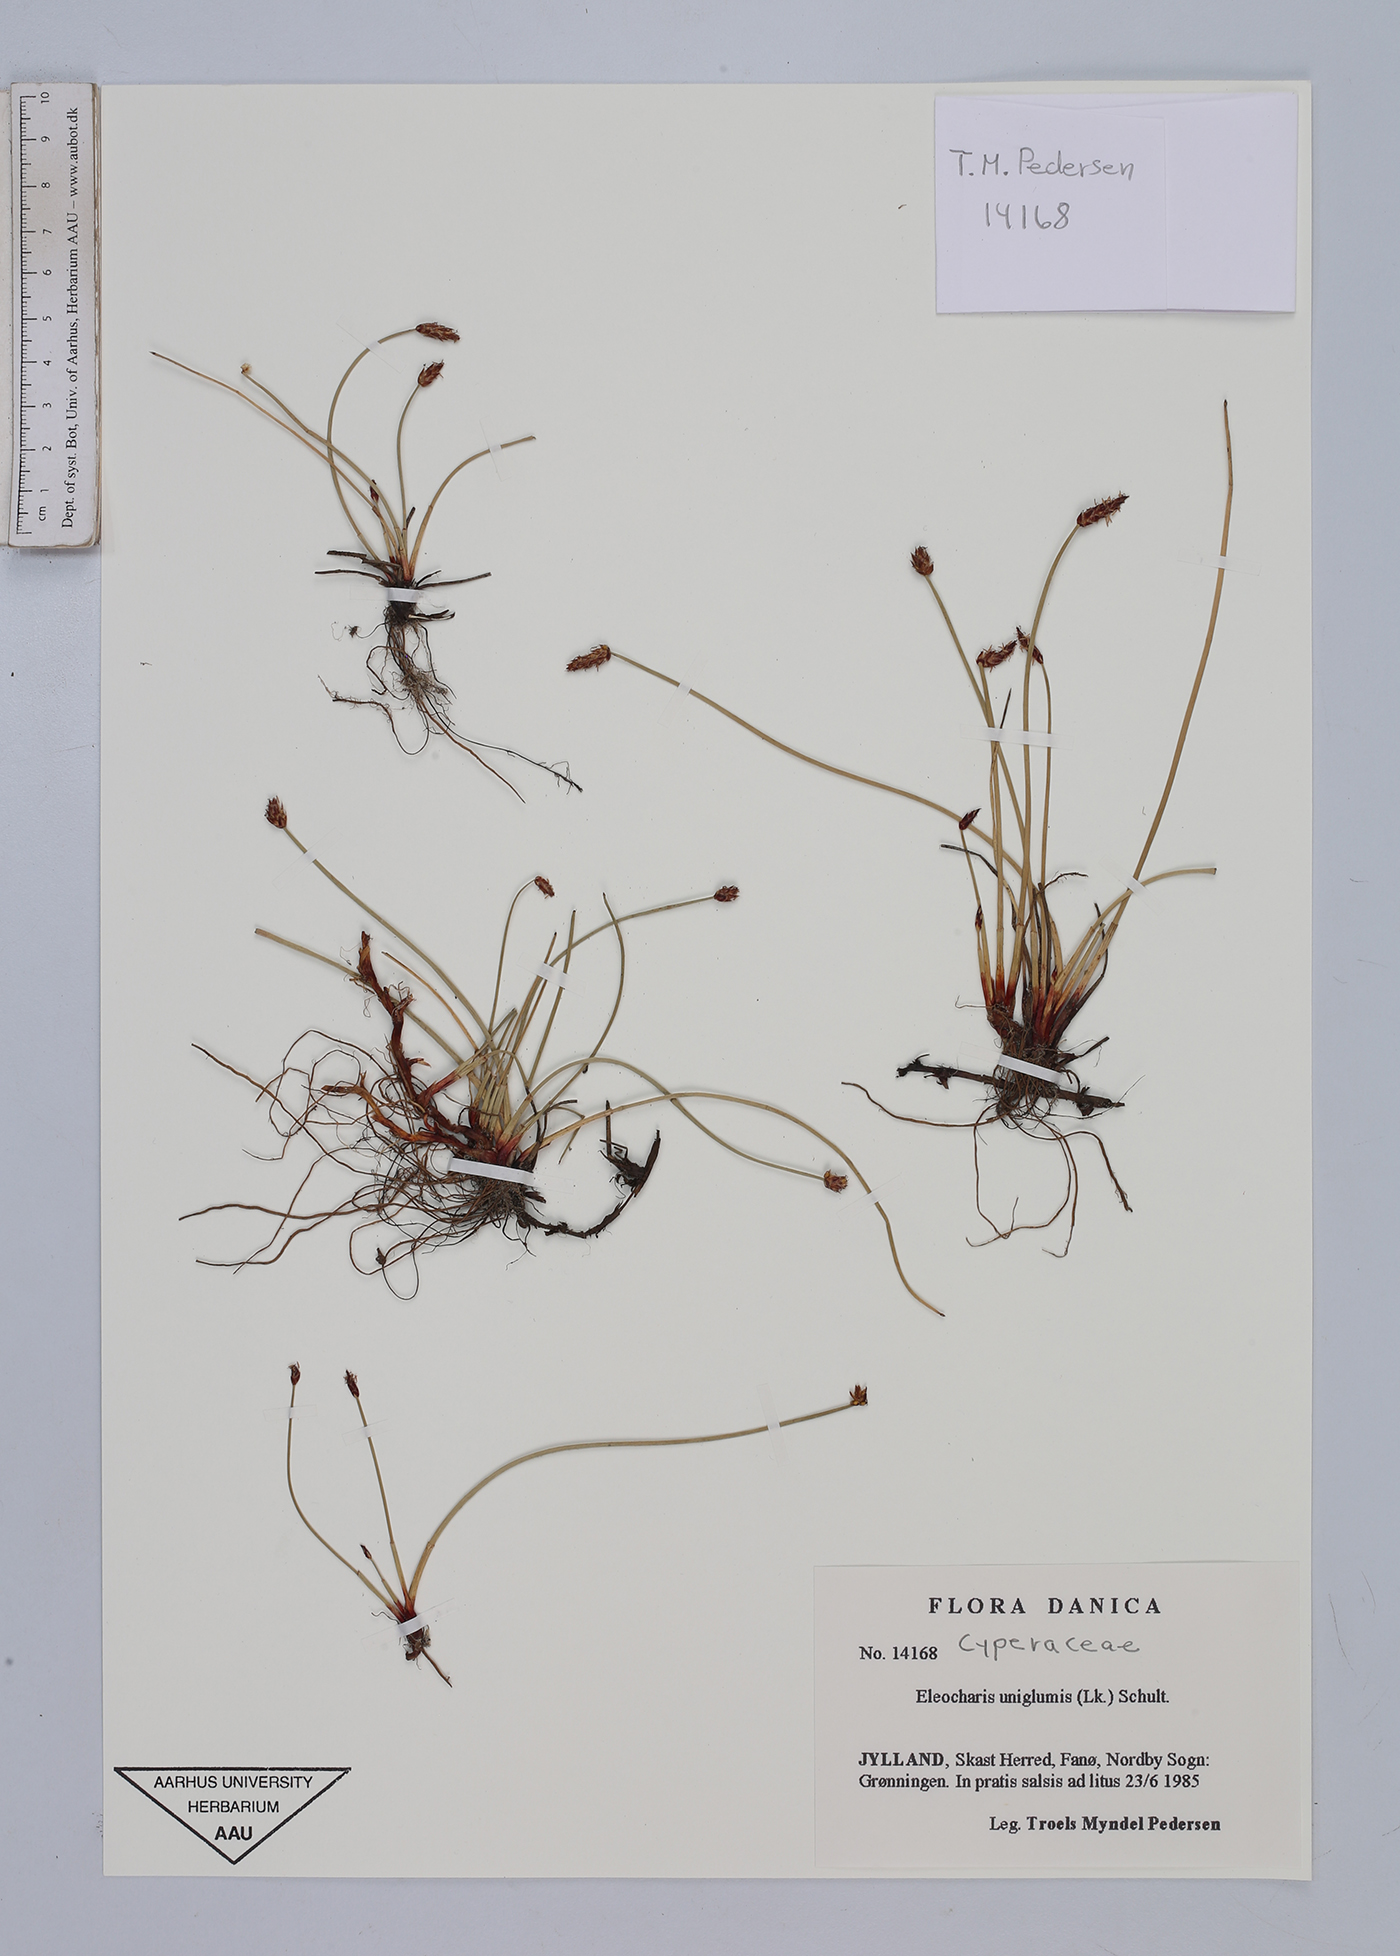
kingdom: Plantae
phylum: Tracheophyta
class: Liliopsida
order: Poales
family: Cyperaceae
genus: Eleocharis
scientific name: Eleocharis uniglumis
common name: Slender spike-rush
